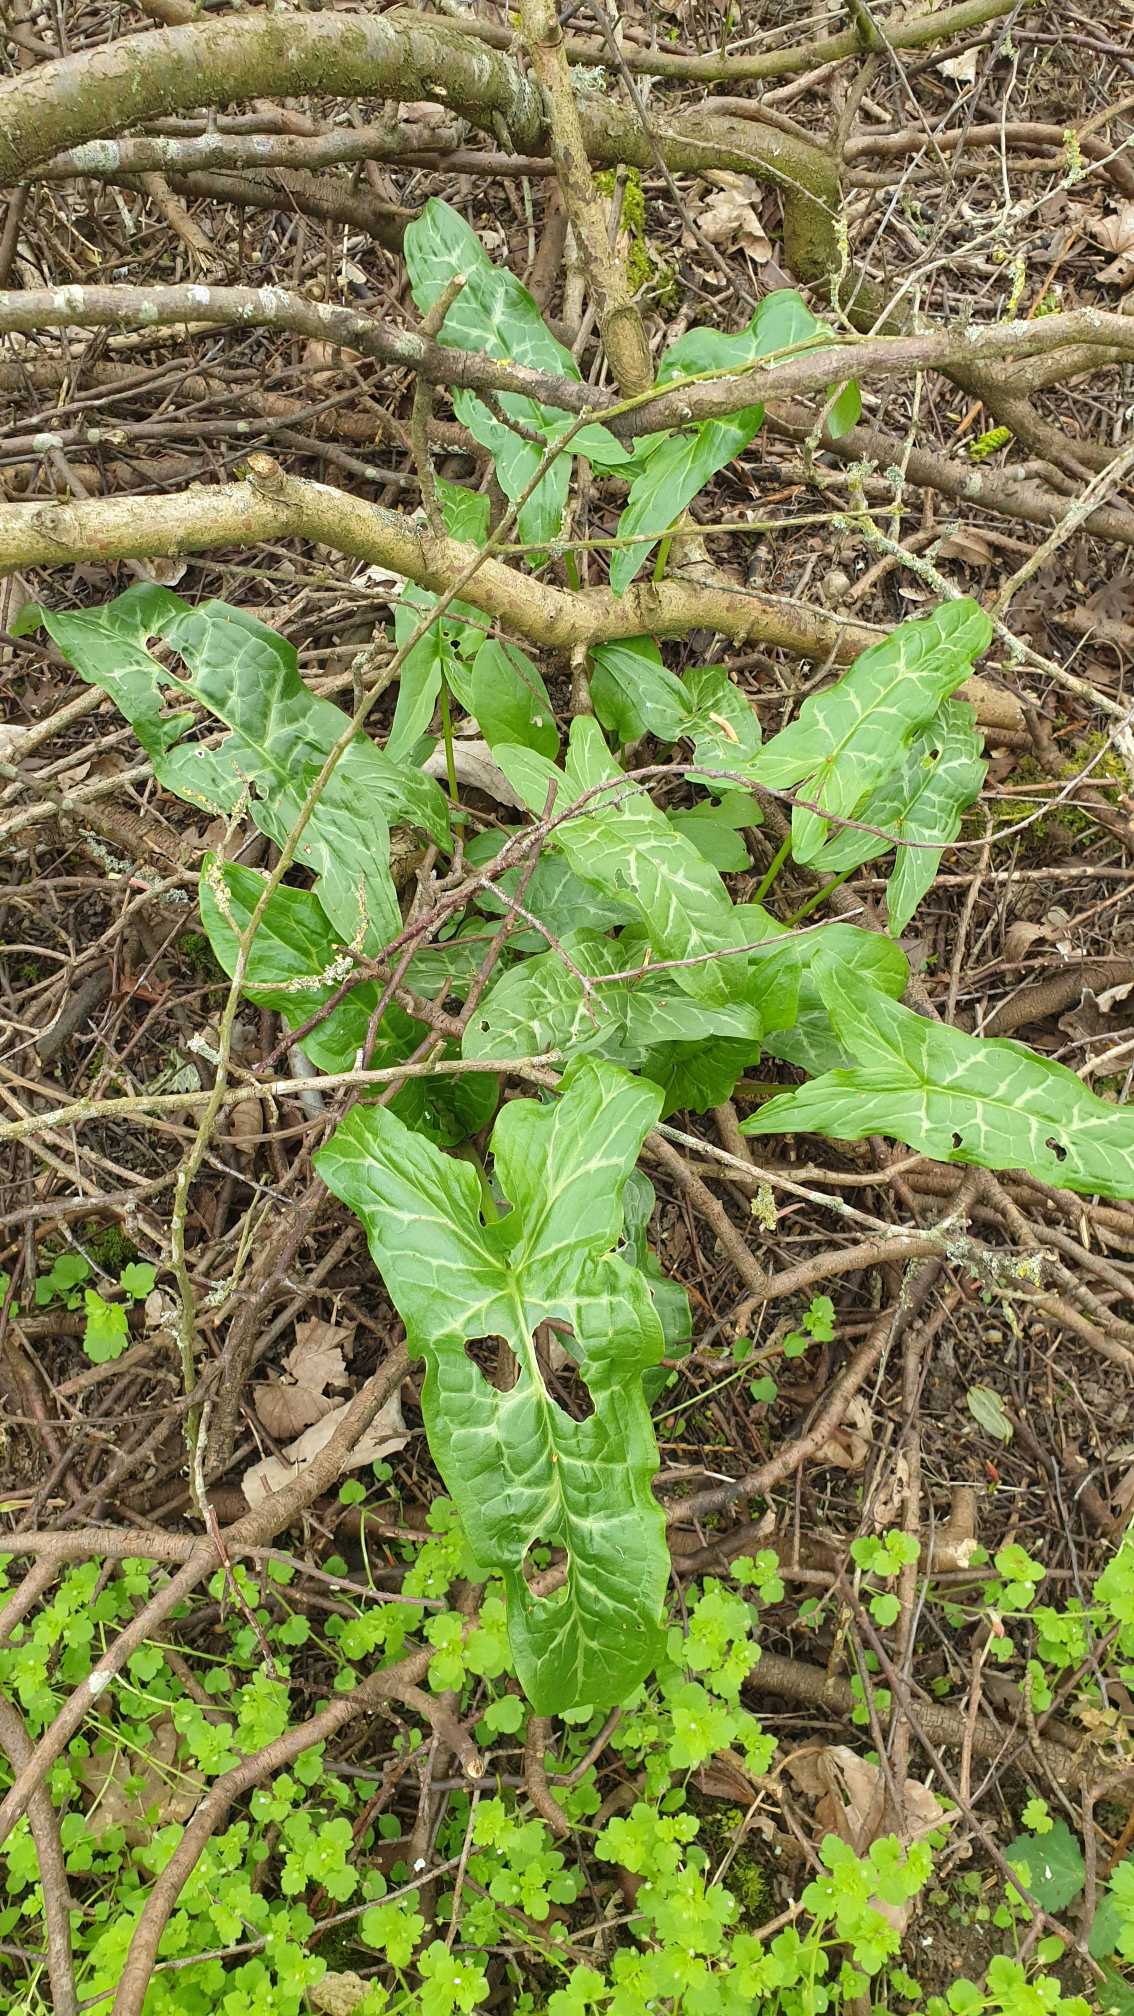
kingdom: Plantae
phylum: Tracheophyta
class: Liliopsida
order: Alismatales
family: Araceae
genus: Arum
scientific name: Arum italicum
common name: Italiensk arum
